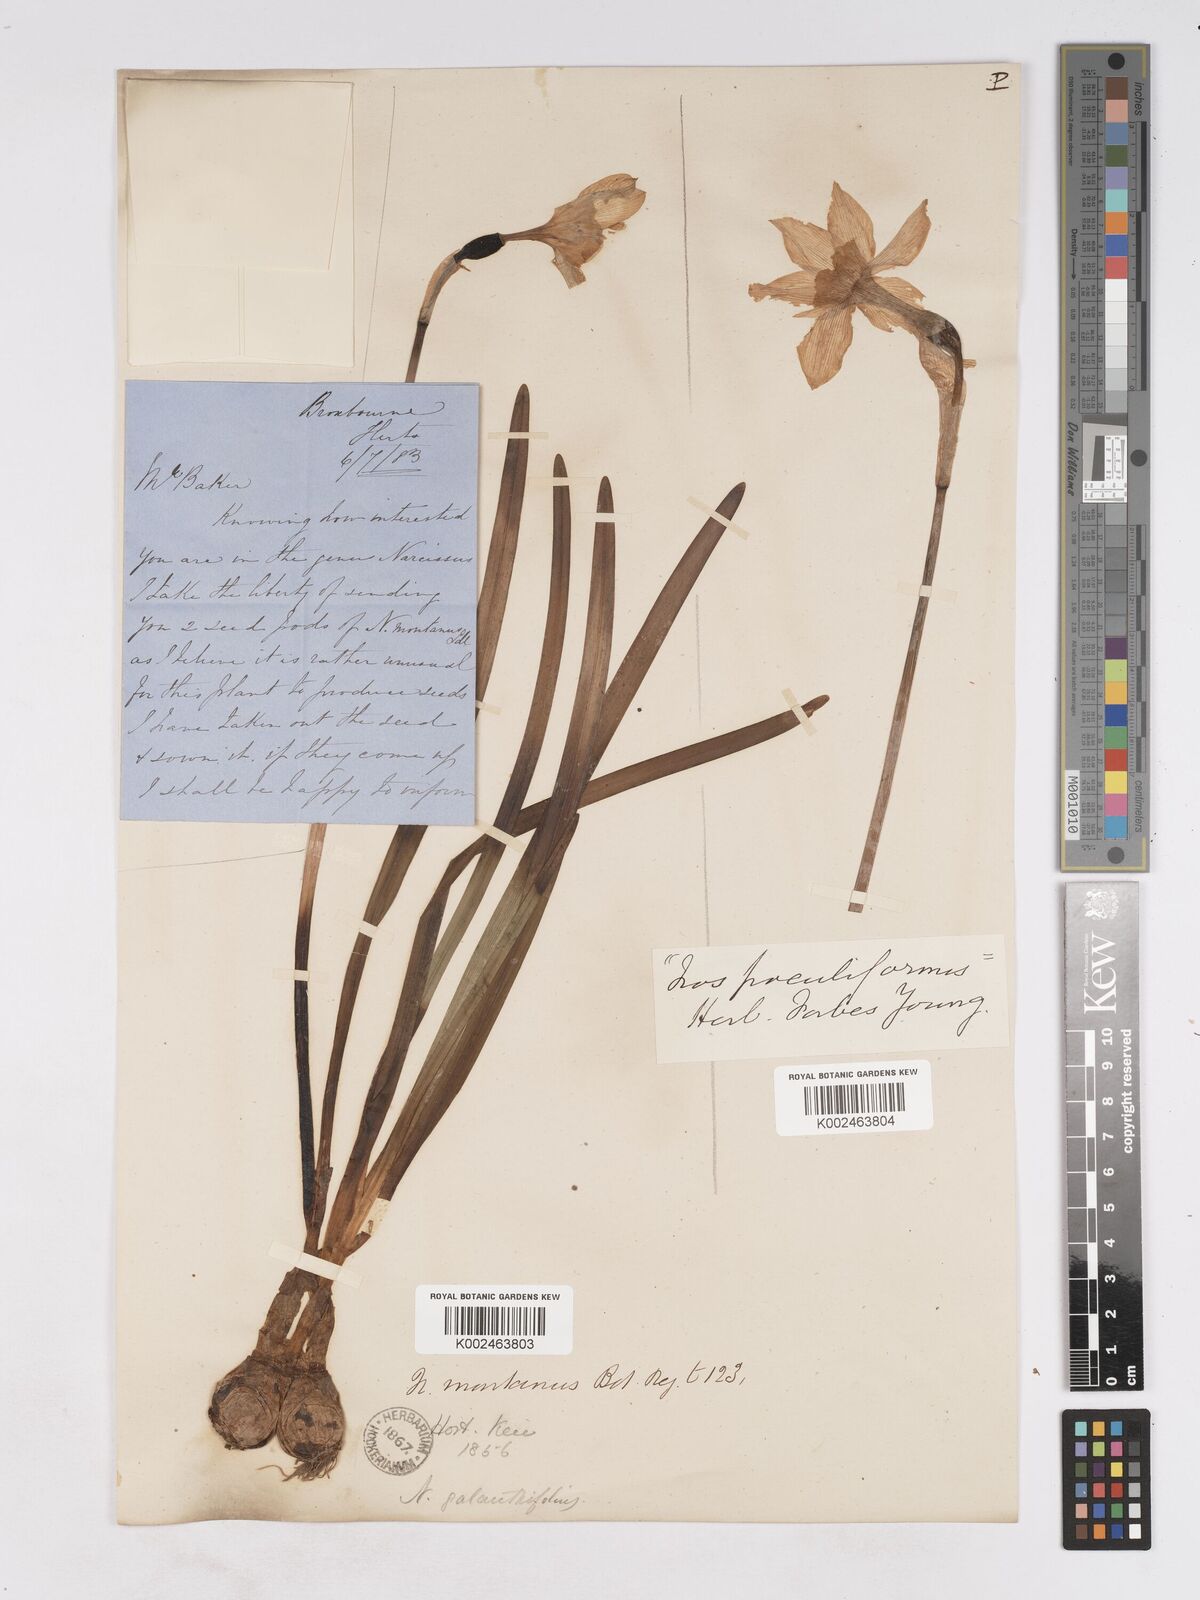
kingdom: Plantae
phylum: Tracheophyta
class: Liliopsida
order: Asparagales
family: Amaryllidaceae
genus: Narcissus
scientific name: Narcissus incomparabilis
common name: Nonesuch daffodil
